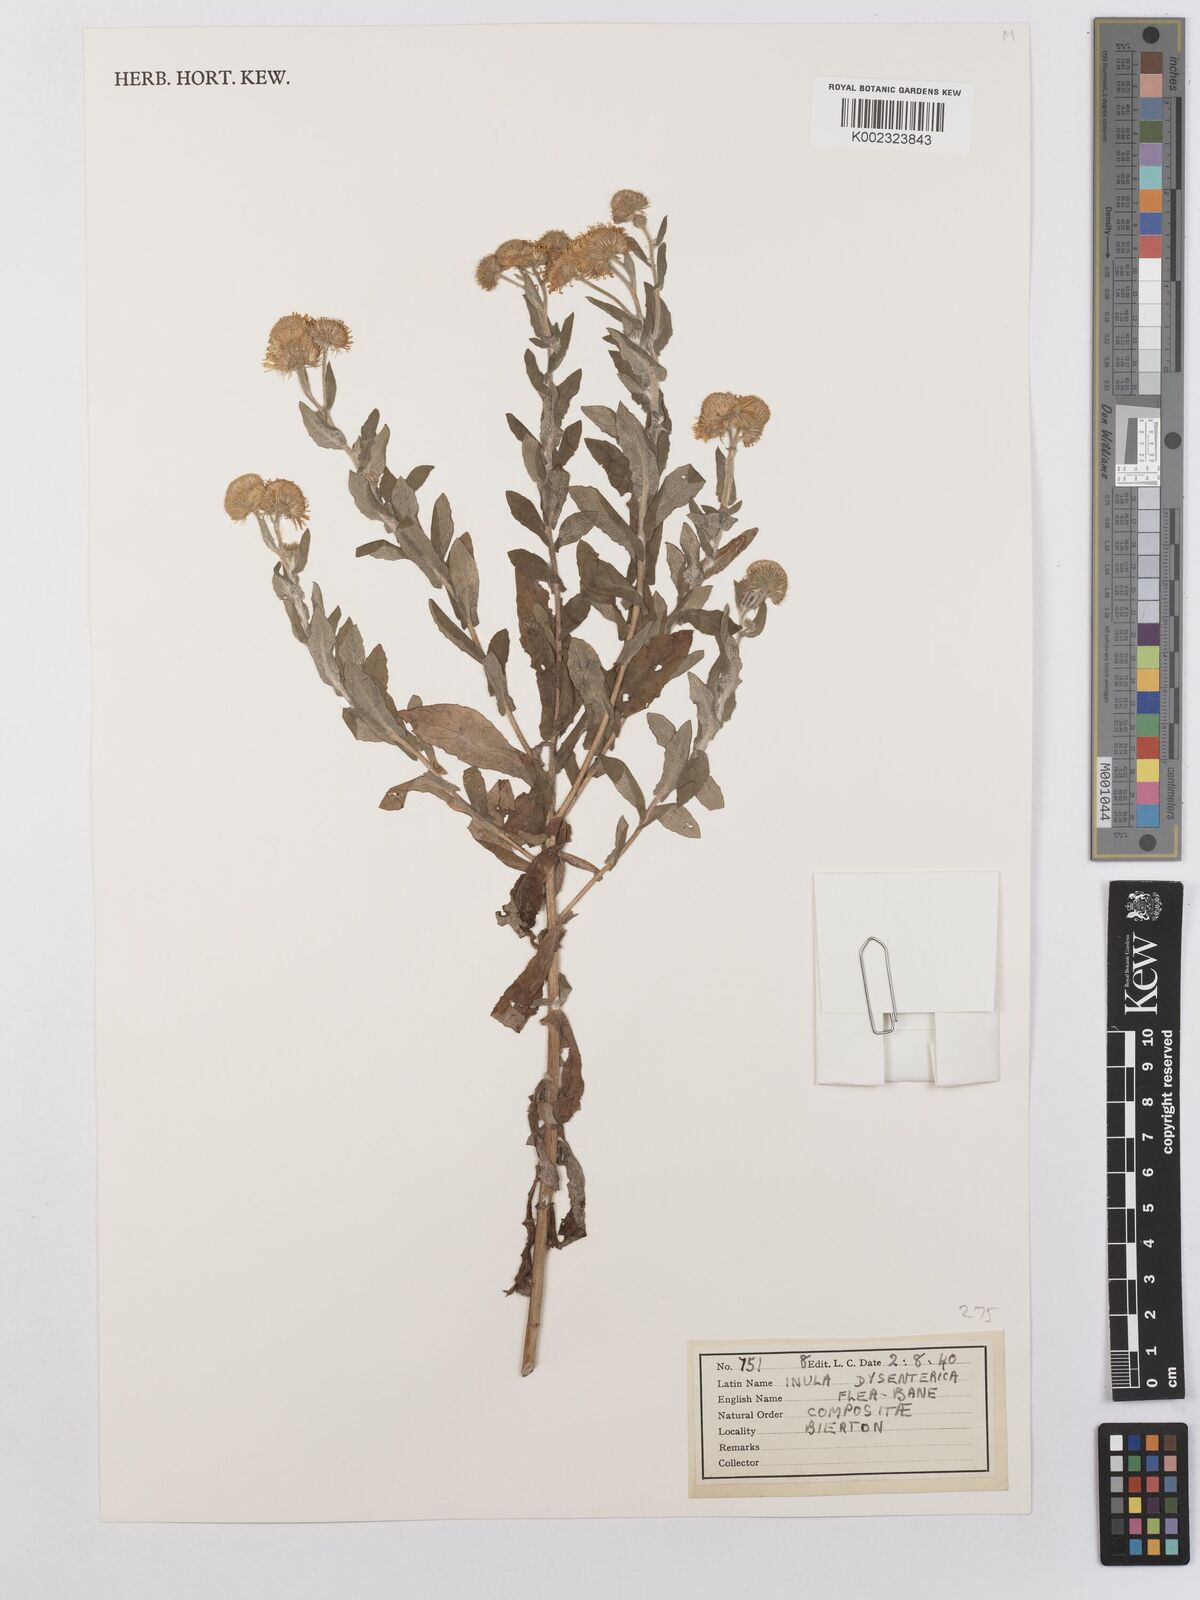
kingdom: Plantae
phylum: Tracheophyta
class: Magnoliopsida
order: Asterales
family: Asteraceae
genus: Pulicaria
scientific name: Pulicaria dysenterica
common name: Common fleabane
